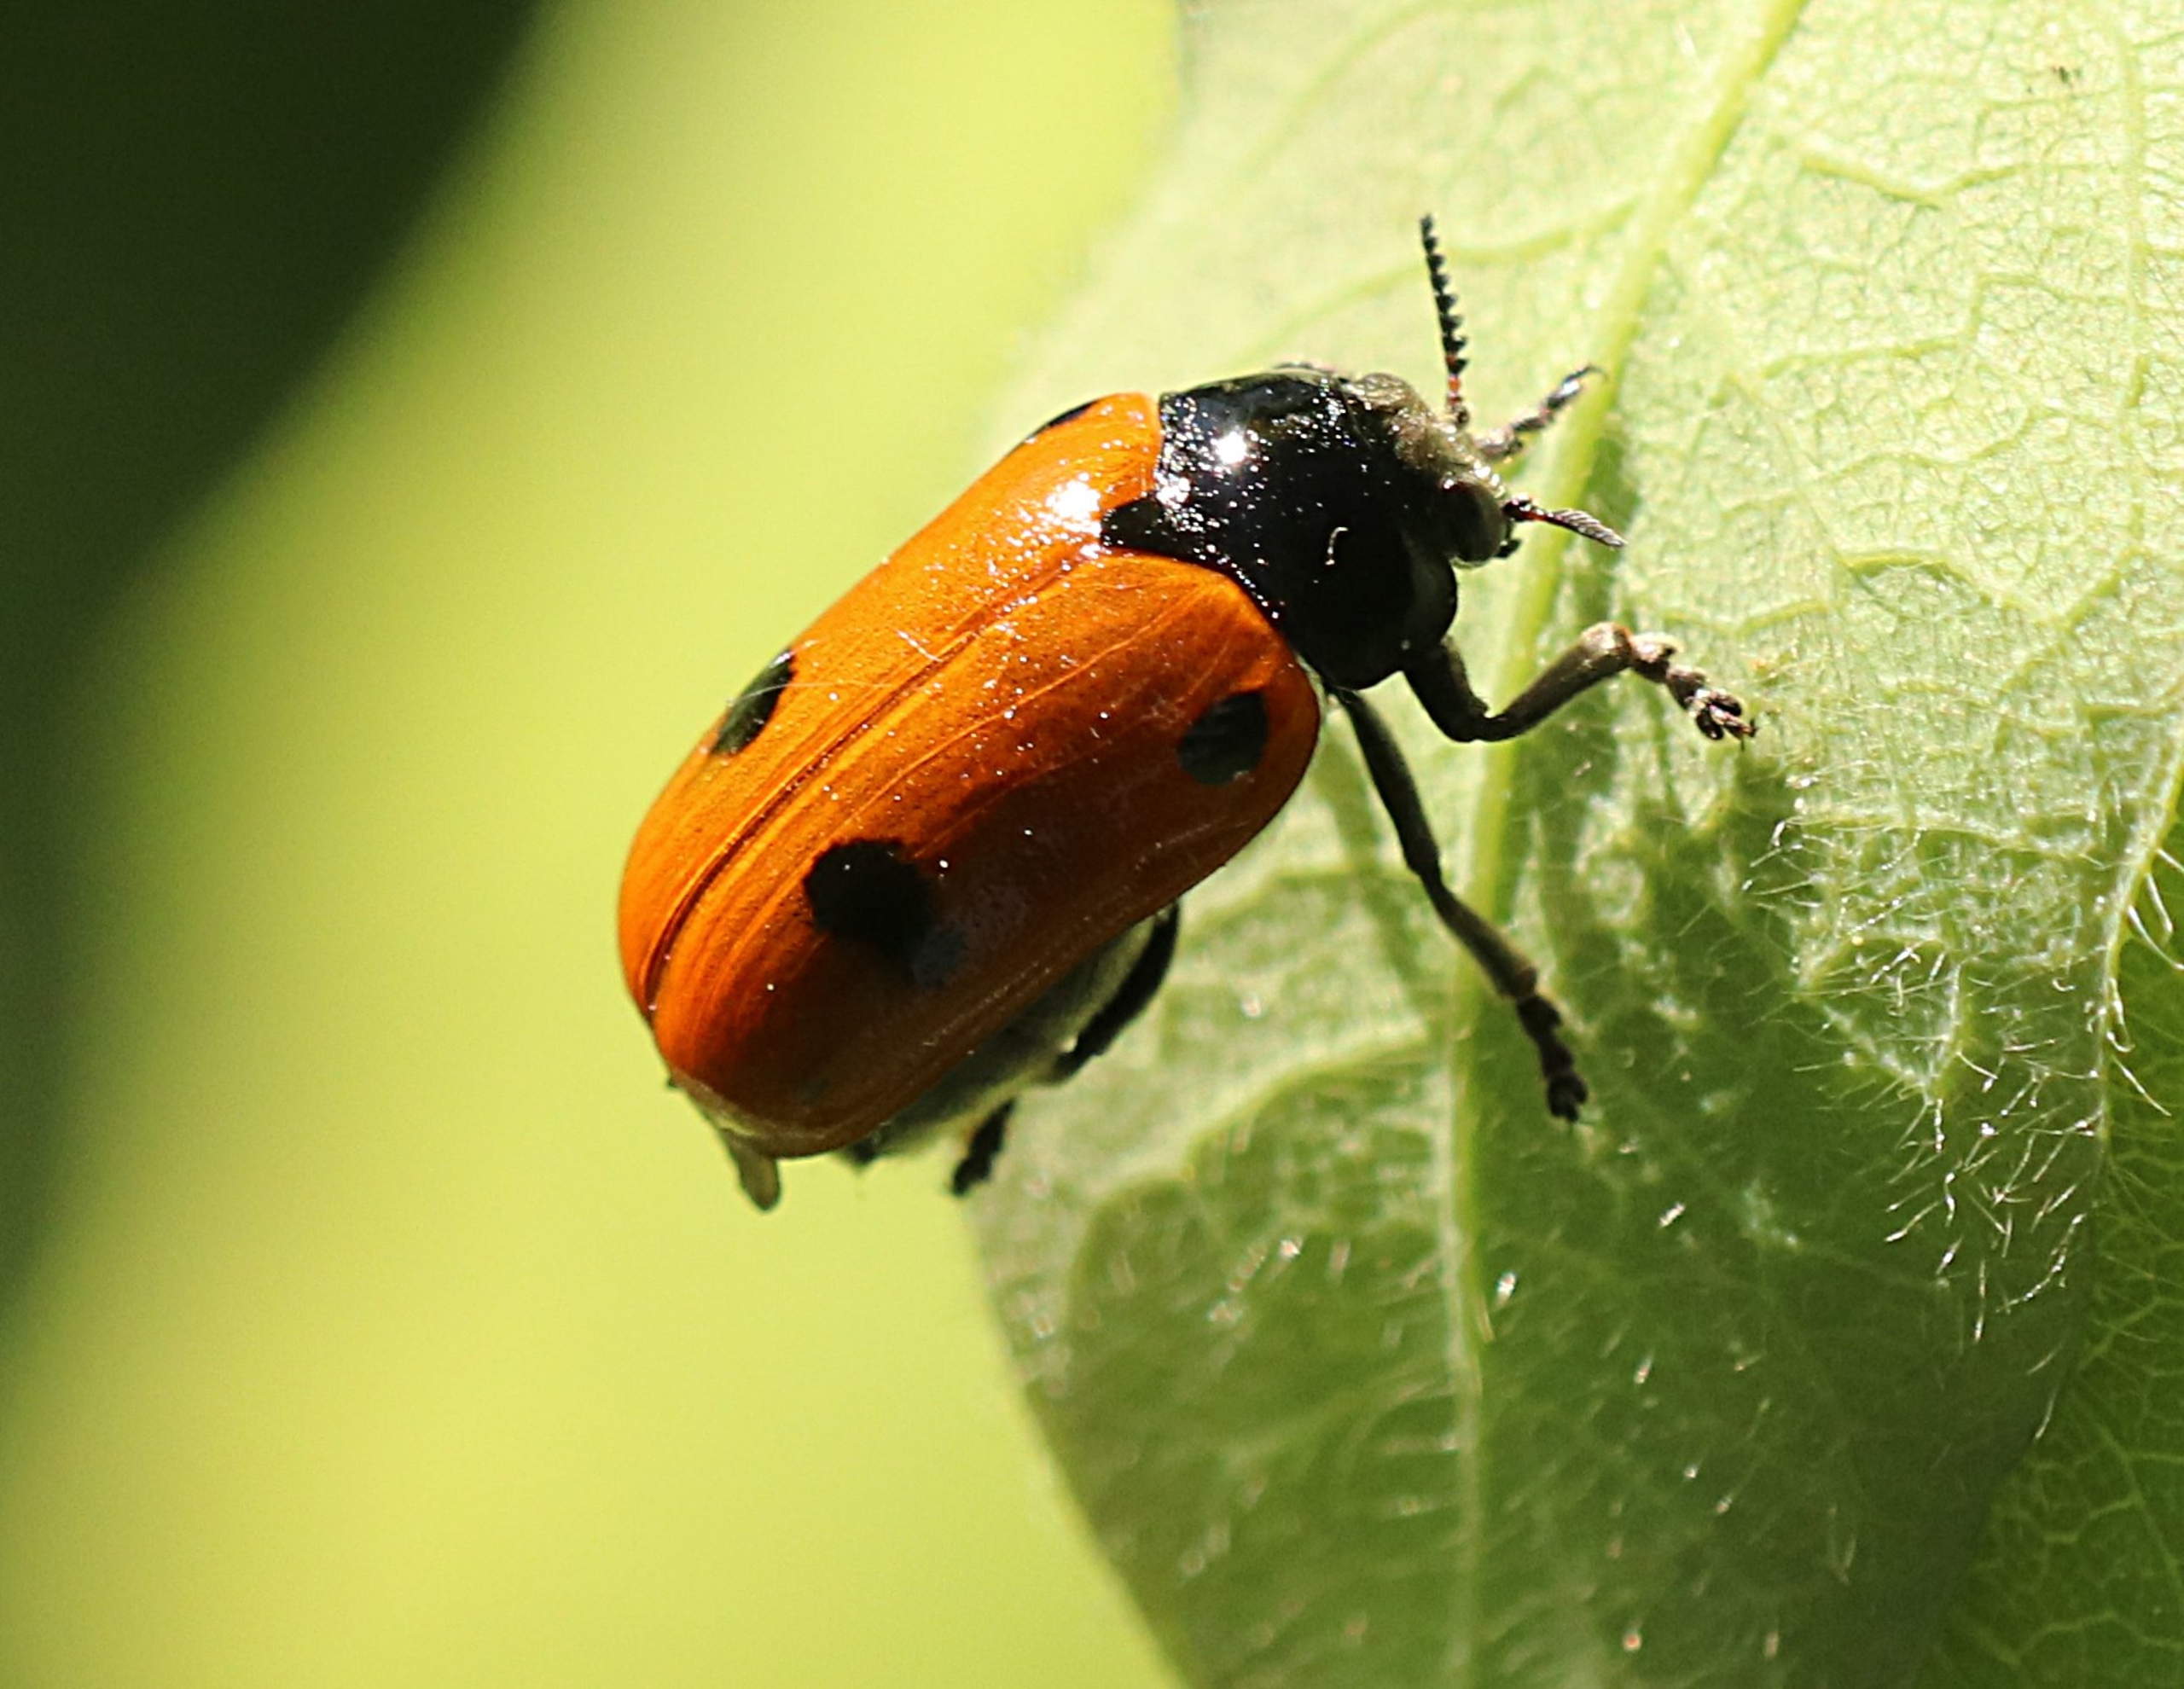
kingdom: Animalia
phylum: Arthropoda
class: Insecta
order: Coleoptera
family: Chrysomelidae
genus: Clytra
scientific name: Clytra quadripunctata
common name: Myrebladbille
